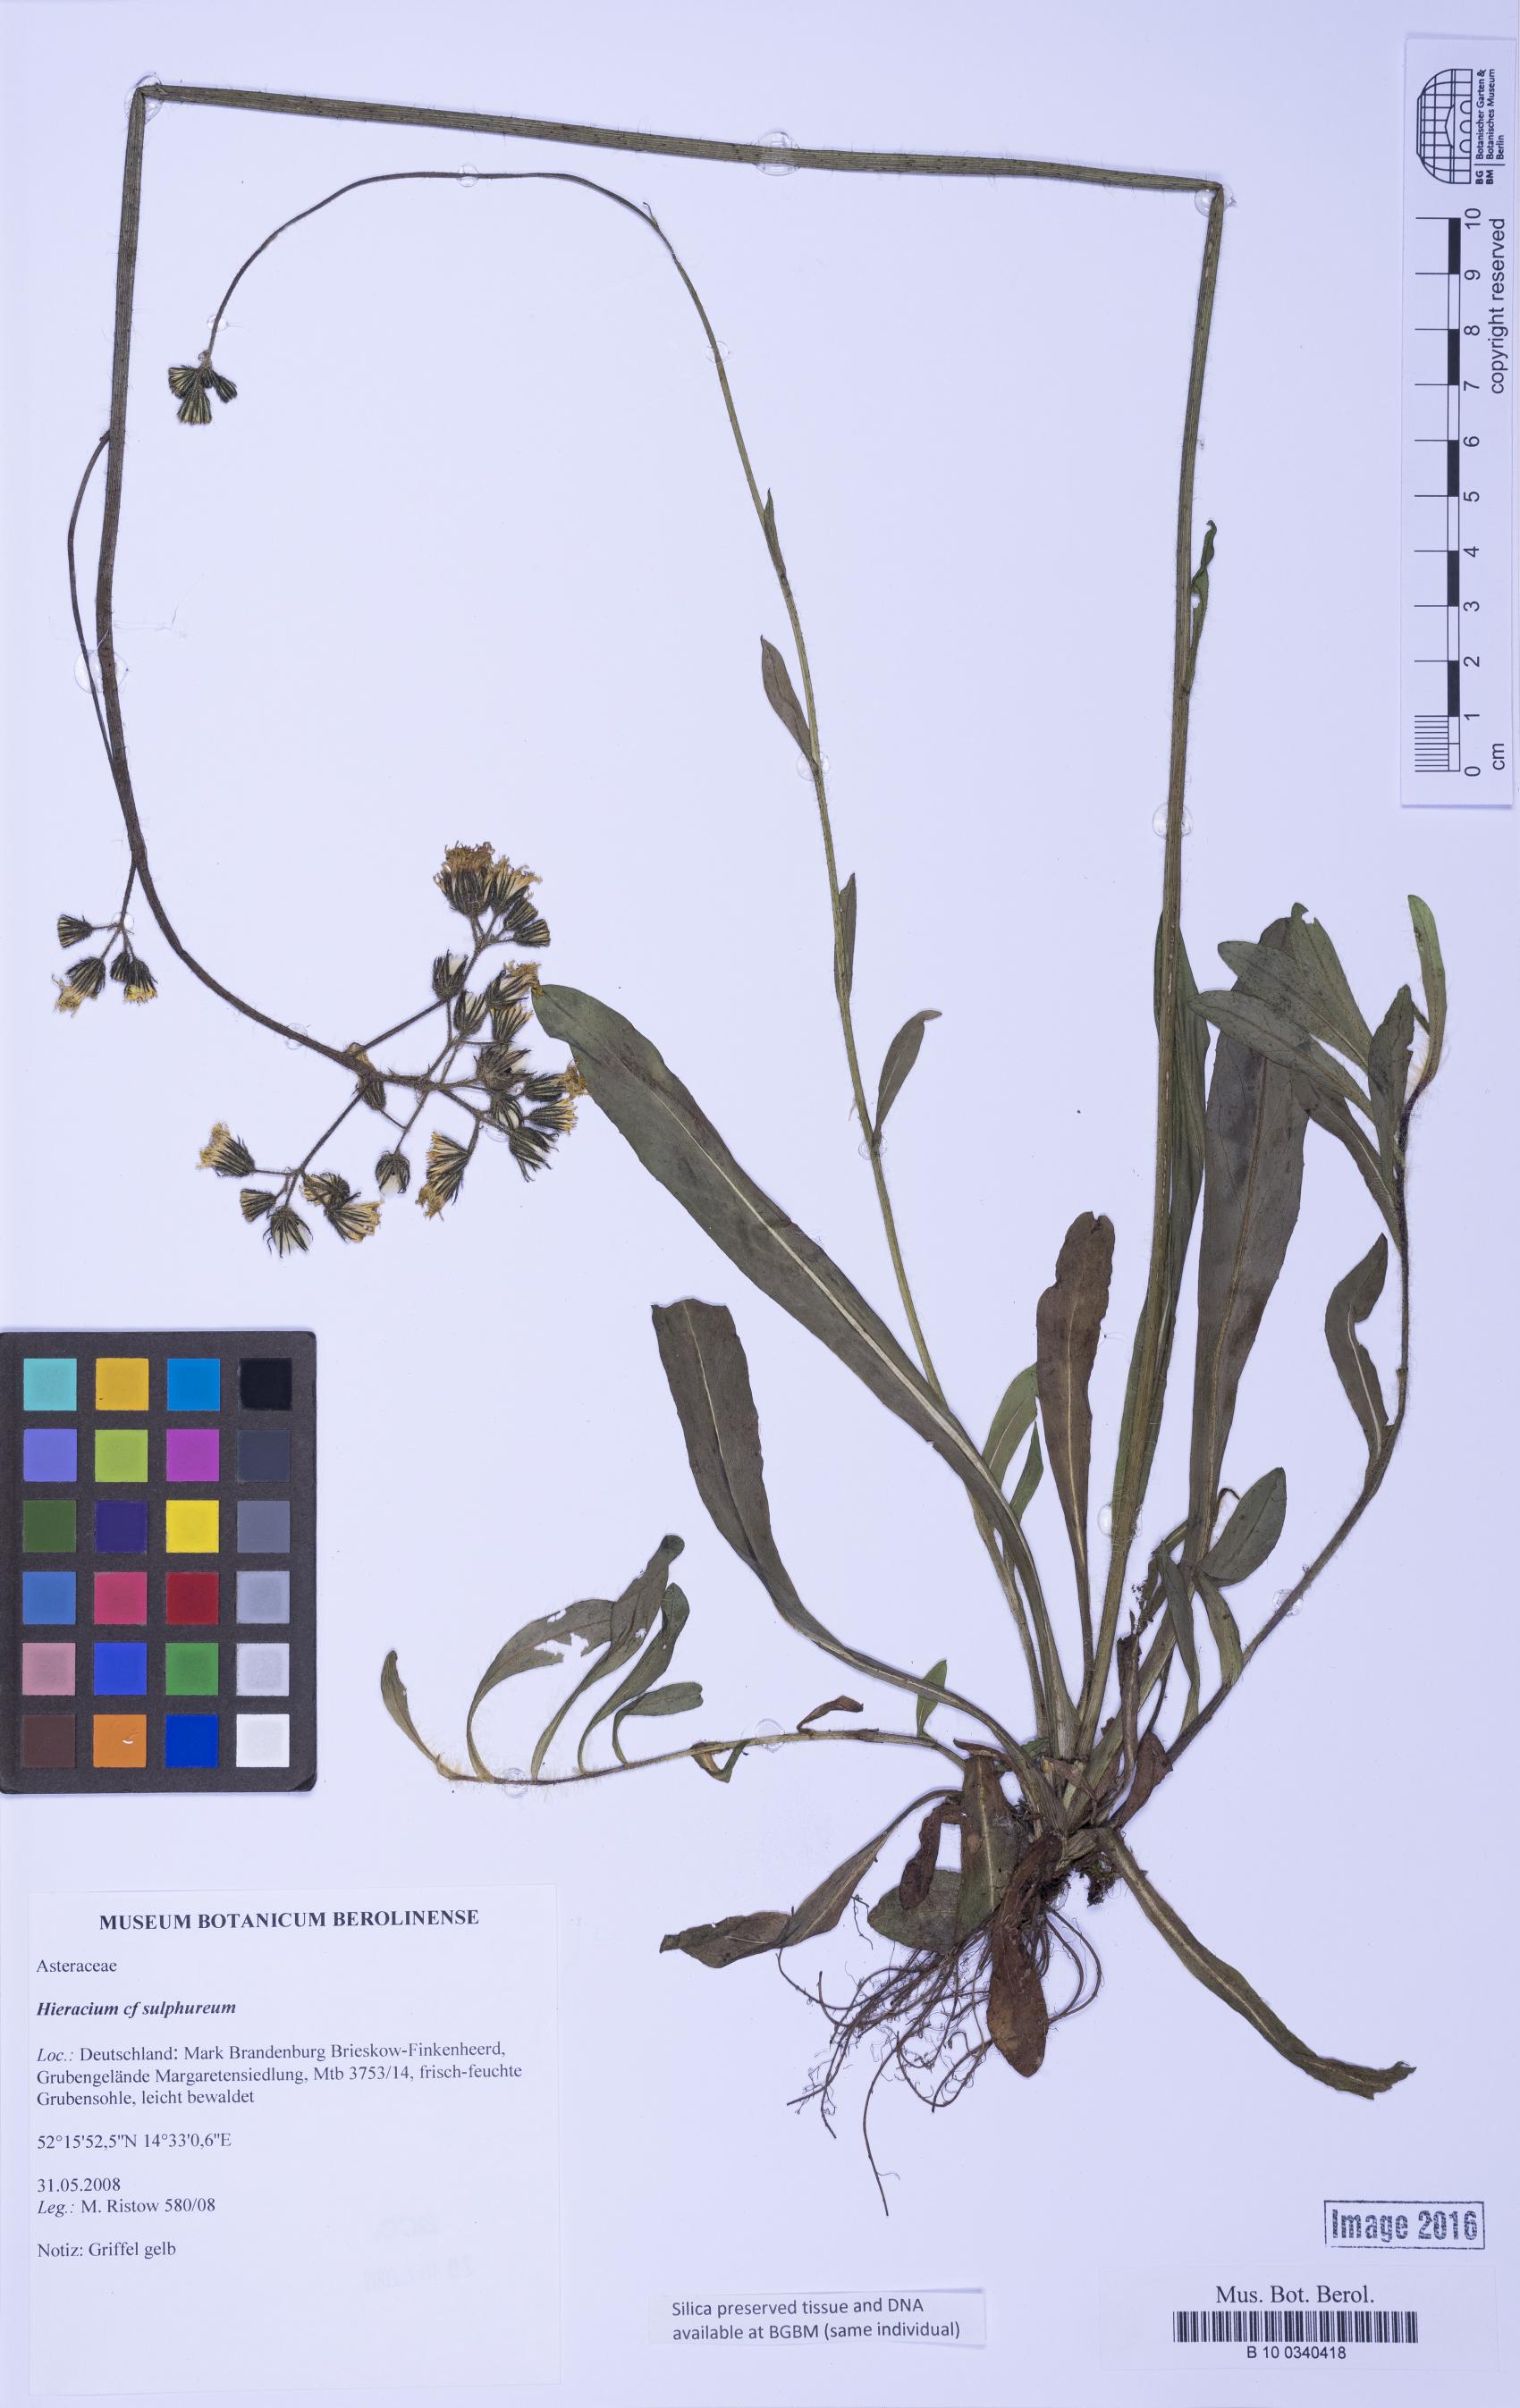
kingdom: Plantae
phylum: Tracheophyta
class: Magnoliopsida
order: Asterales
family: Asteraceae
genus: Pilosella
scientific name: Pilosella sulphurea
